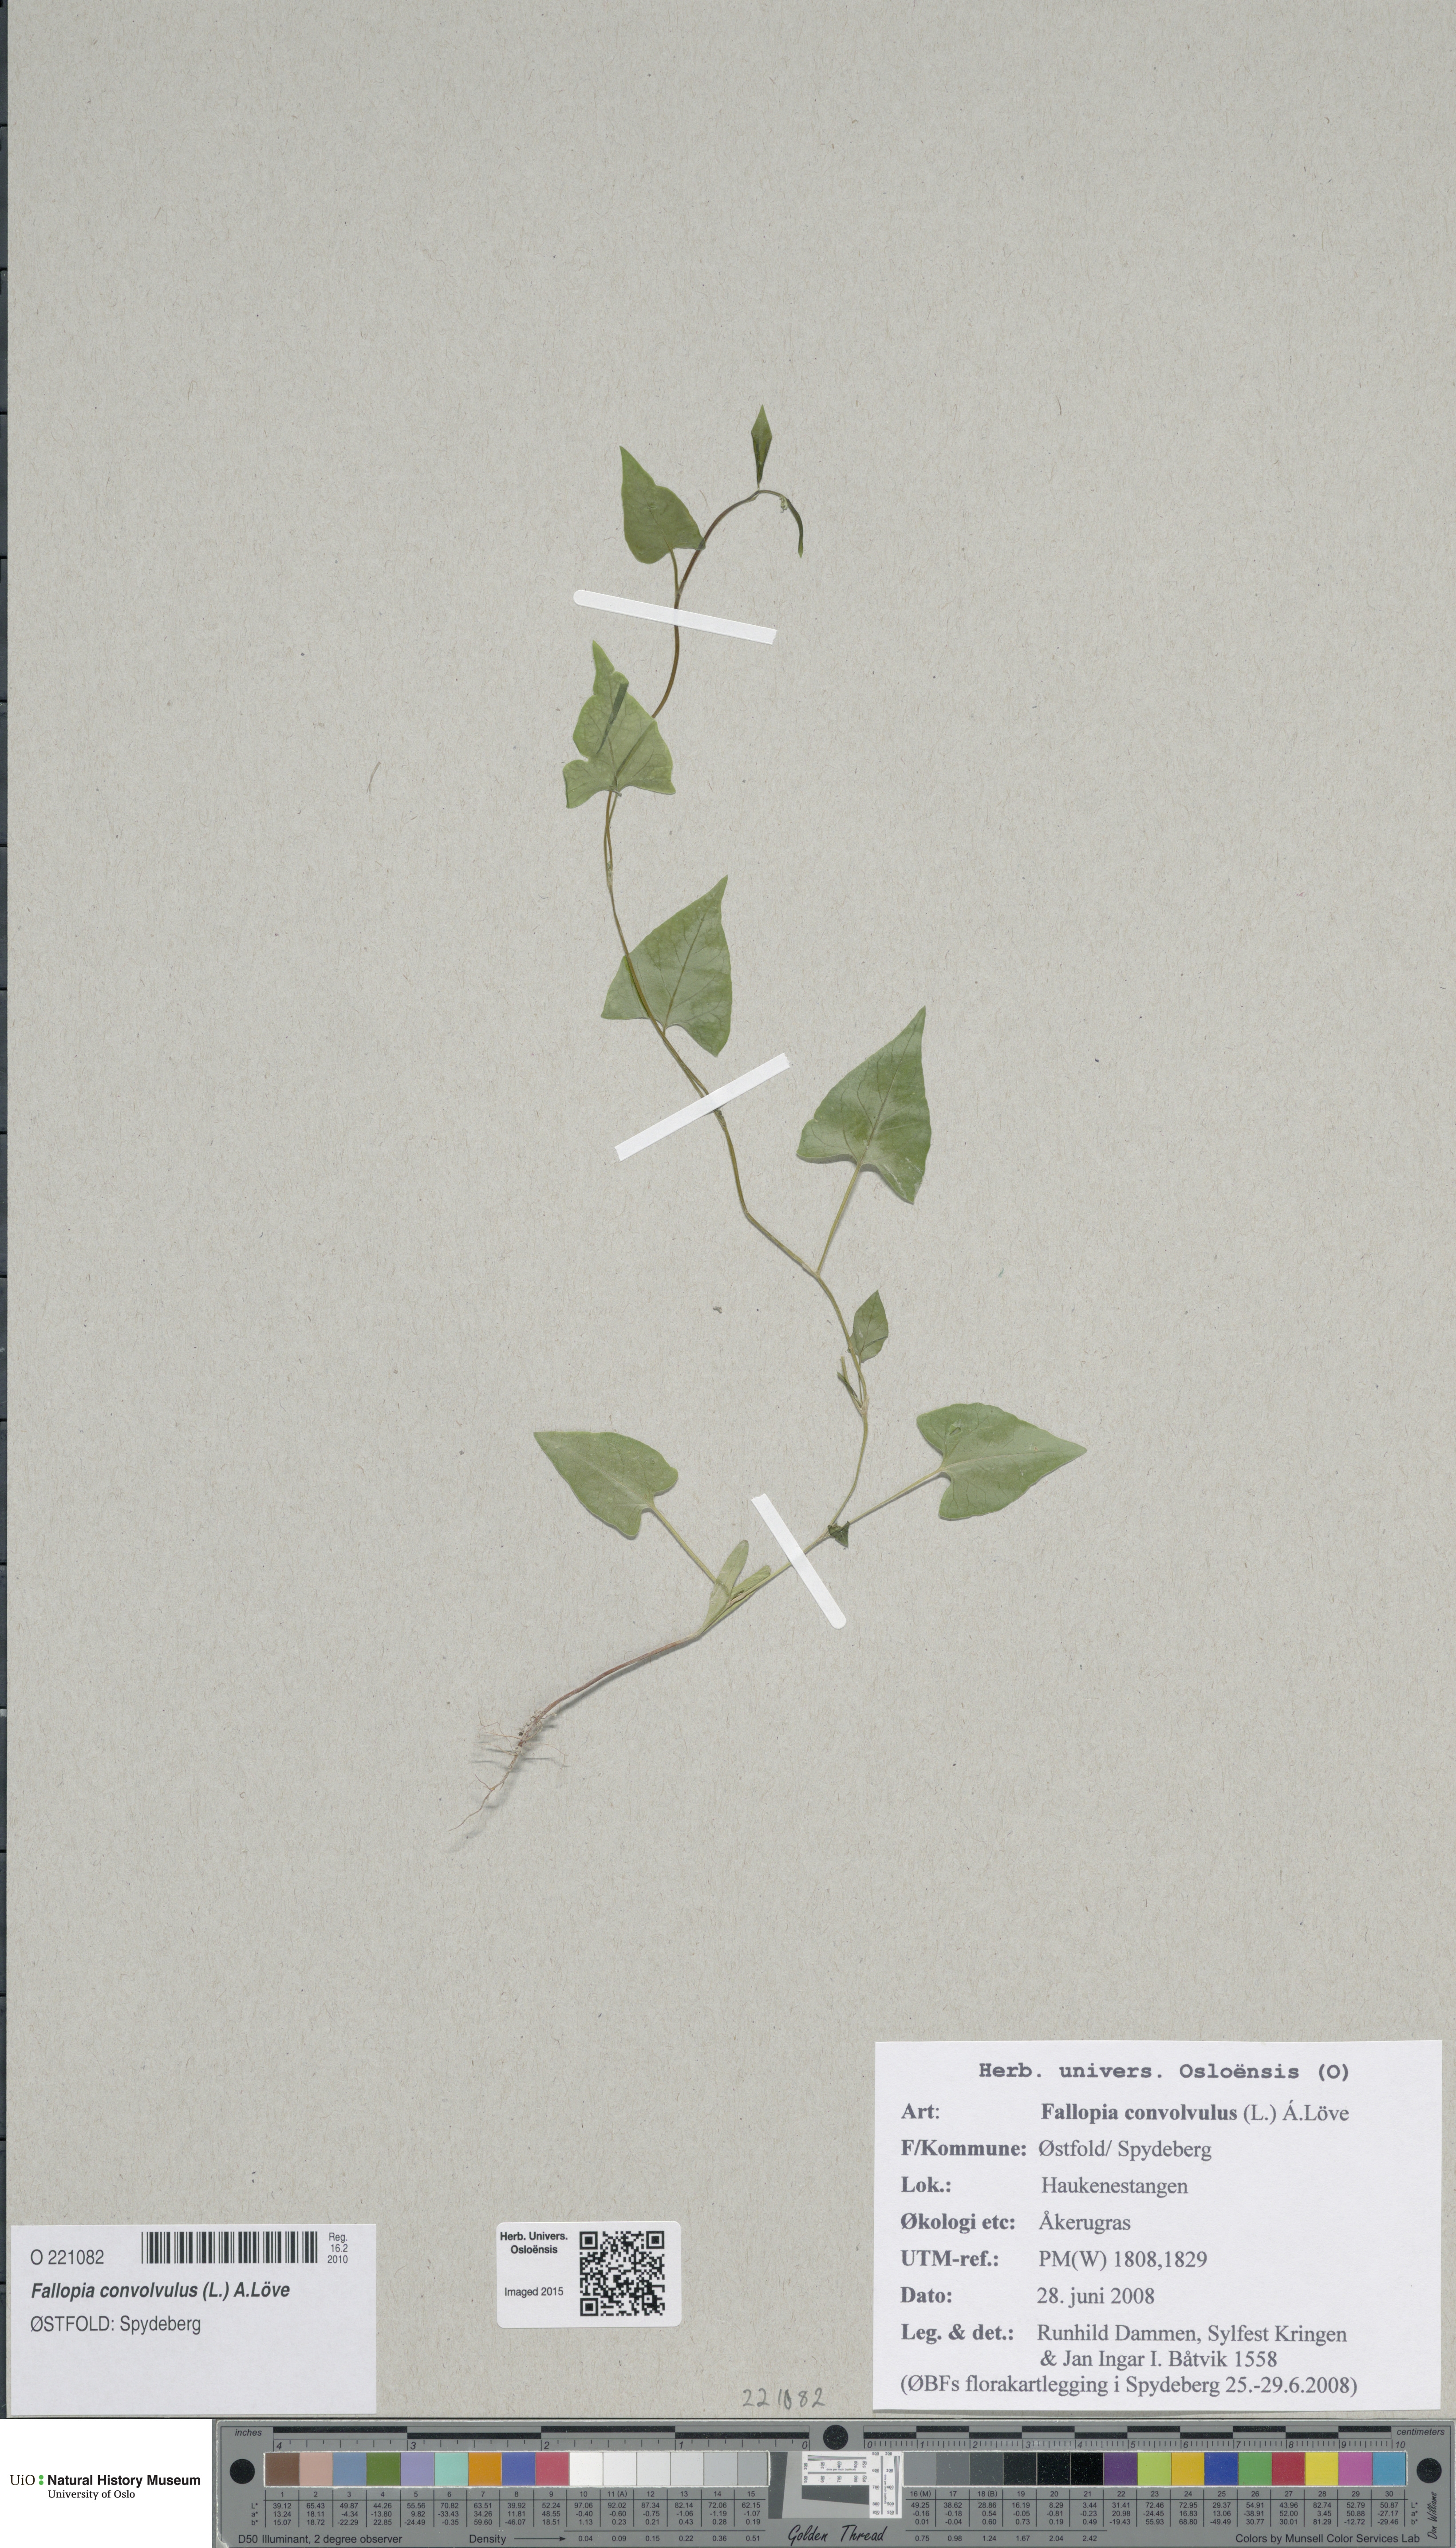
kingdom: Plantae
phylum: Tracheophyta
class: Magnoliopsida
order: Caryophyllales
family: Polygonaceae
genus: Fallopia
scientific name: Fallopia convolvulus
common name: Black bindweed
